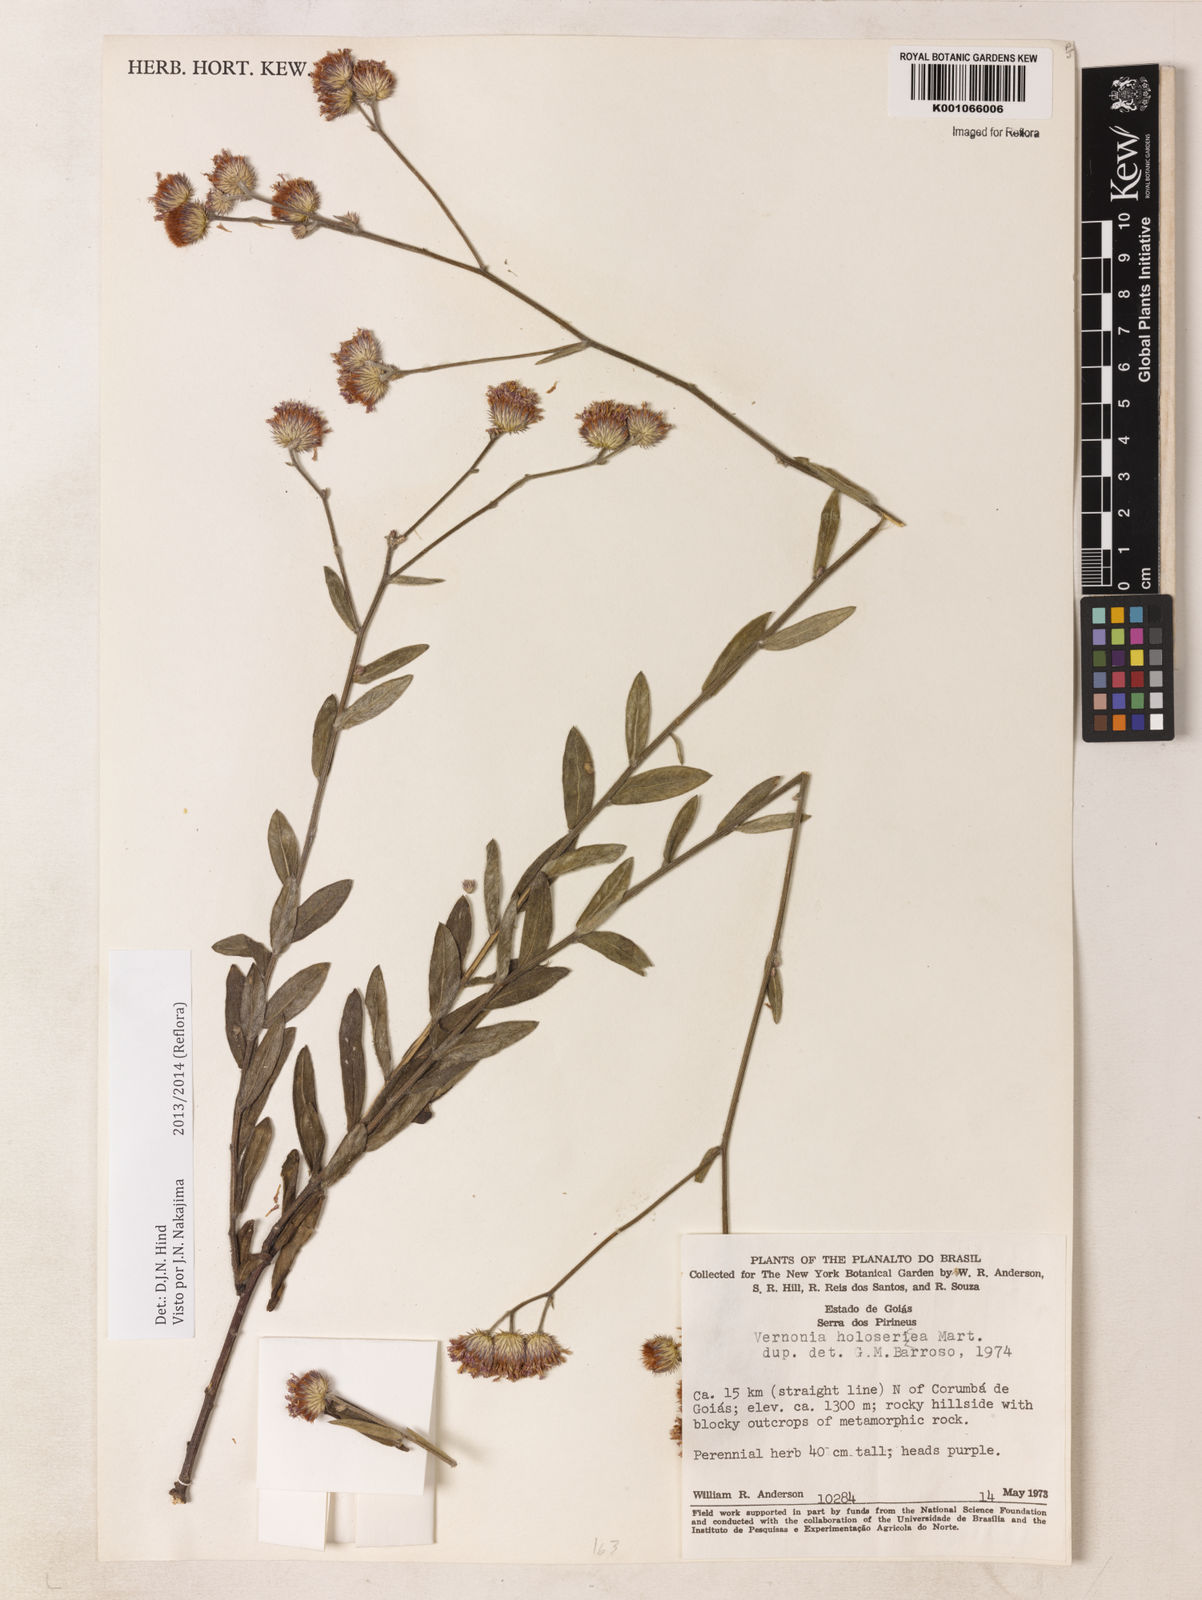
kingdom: Plantae
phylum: Tracheophyta
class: Magnoliopsida
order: Asterales
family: Asteraceae
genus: Echinocoryne
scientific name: Echinocoryne holosericea
